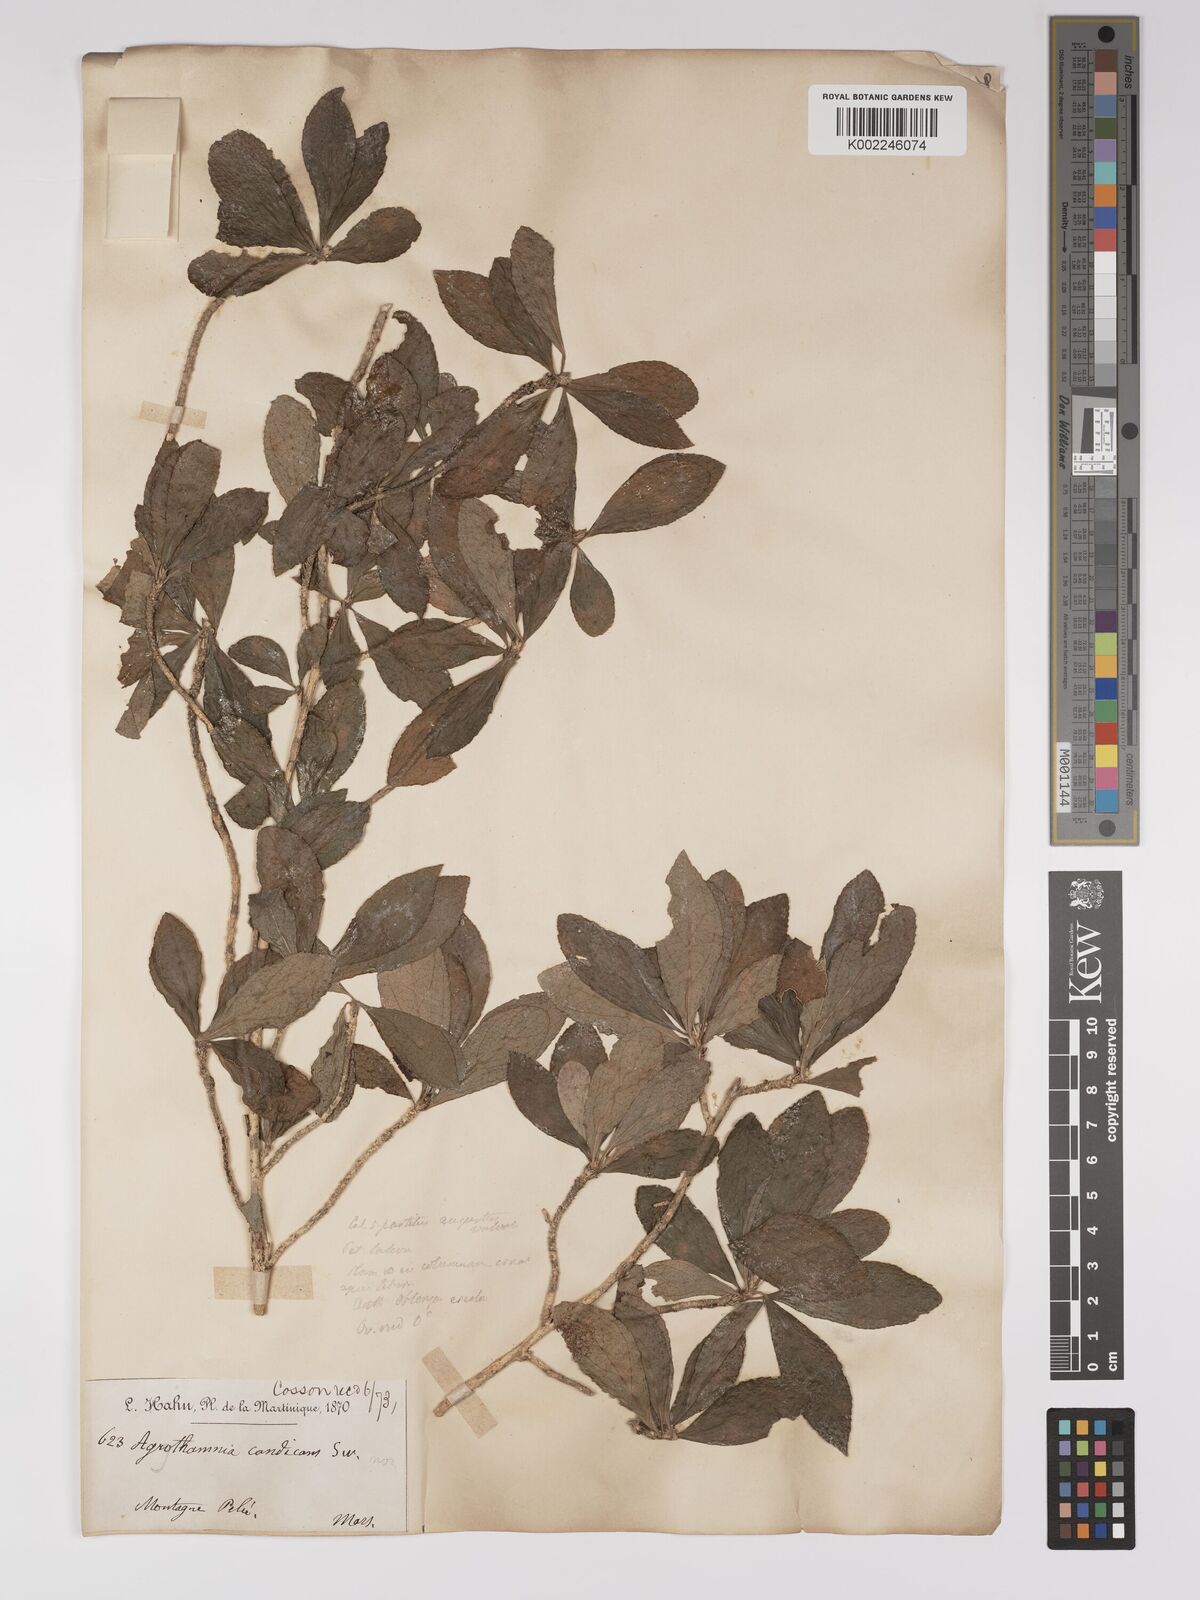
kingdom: Plantae
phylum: Tracheophyta
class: Magnoliopsida
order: Malpighiales
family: Euphorbiaceae
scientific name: Euphorbiaceae
